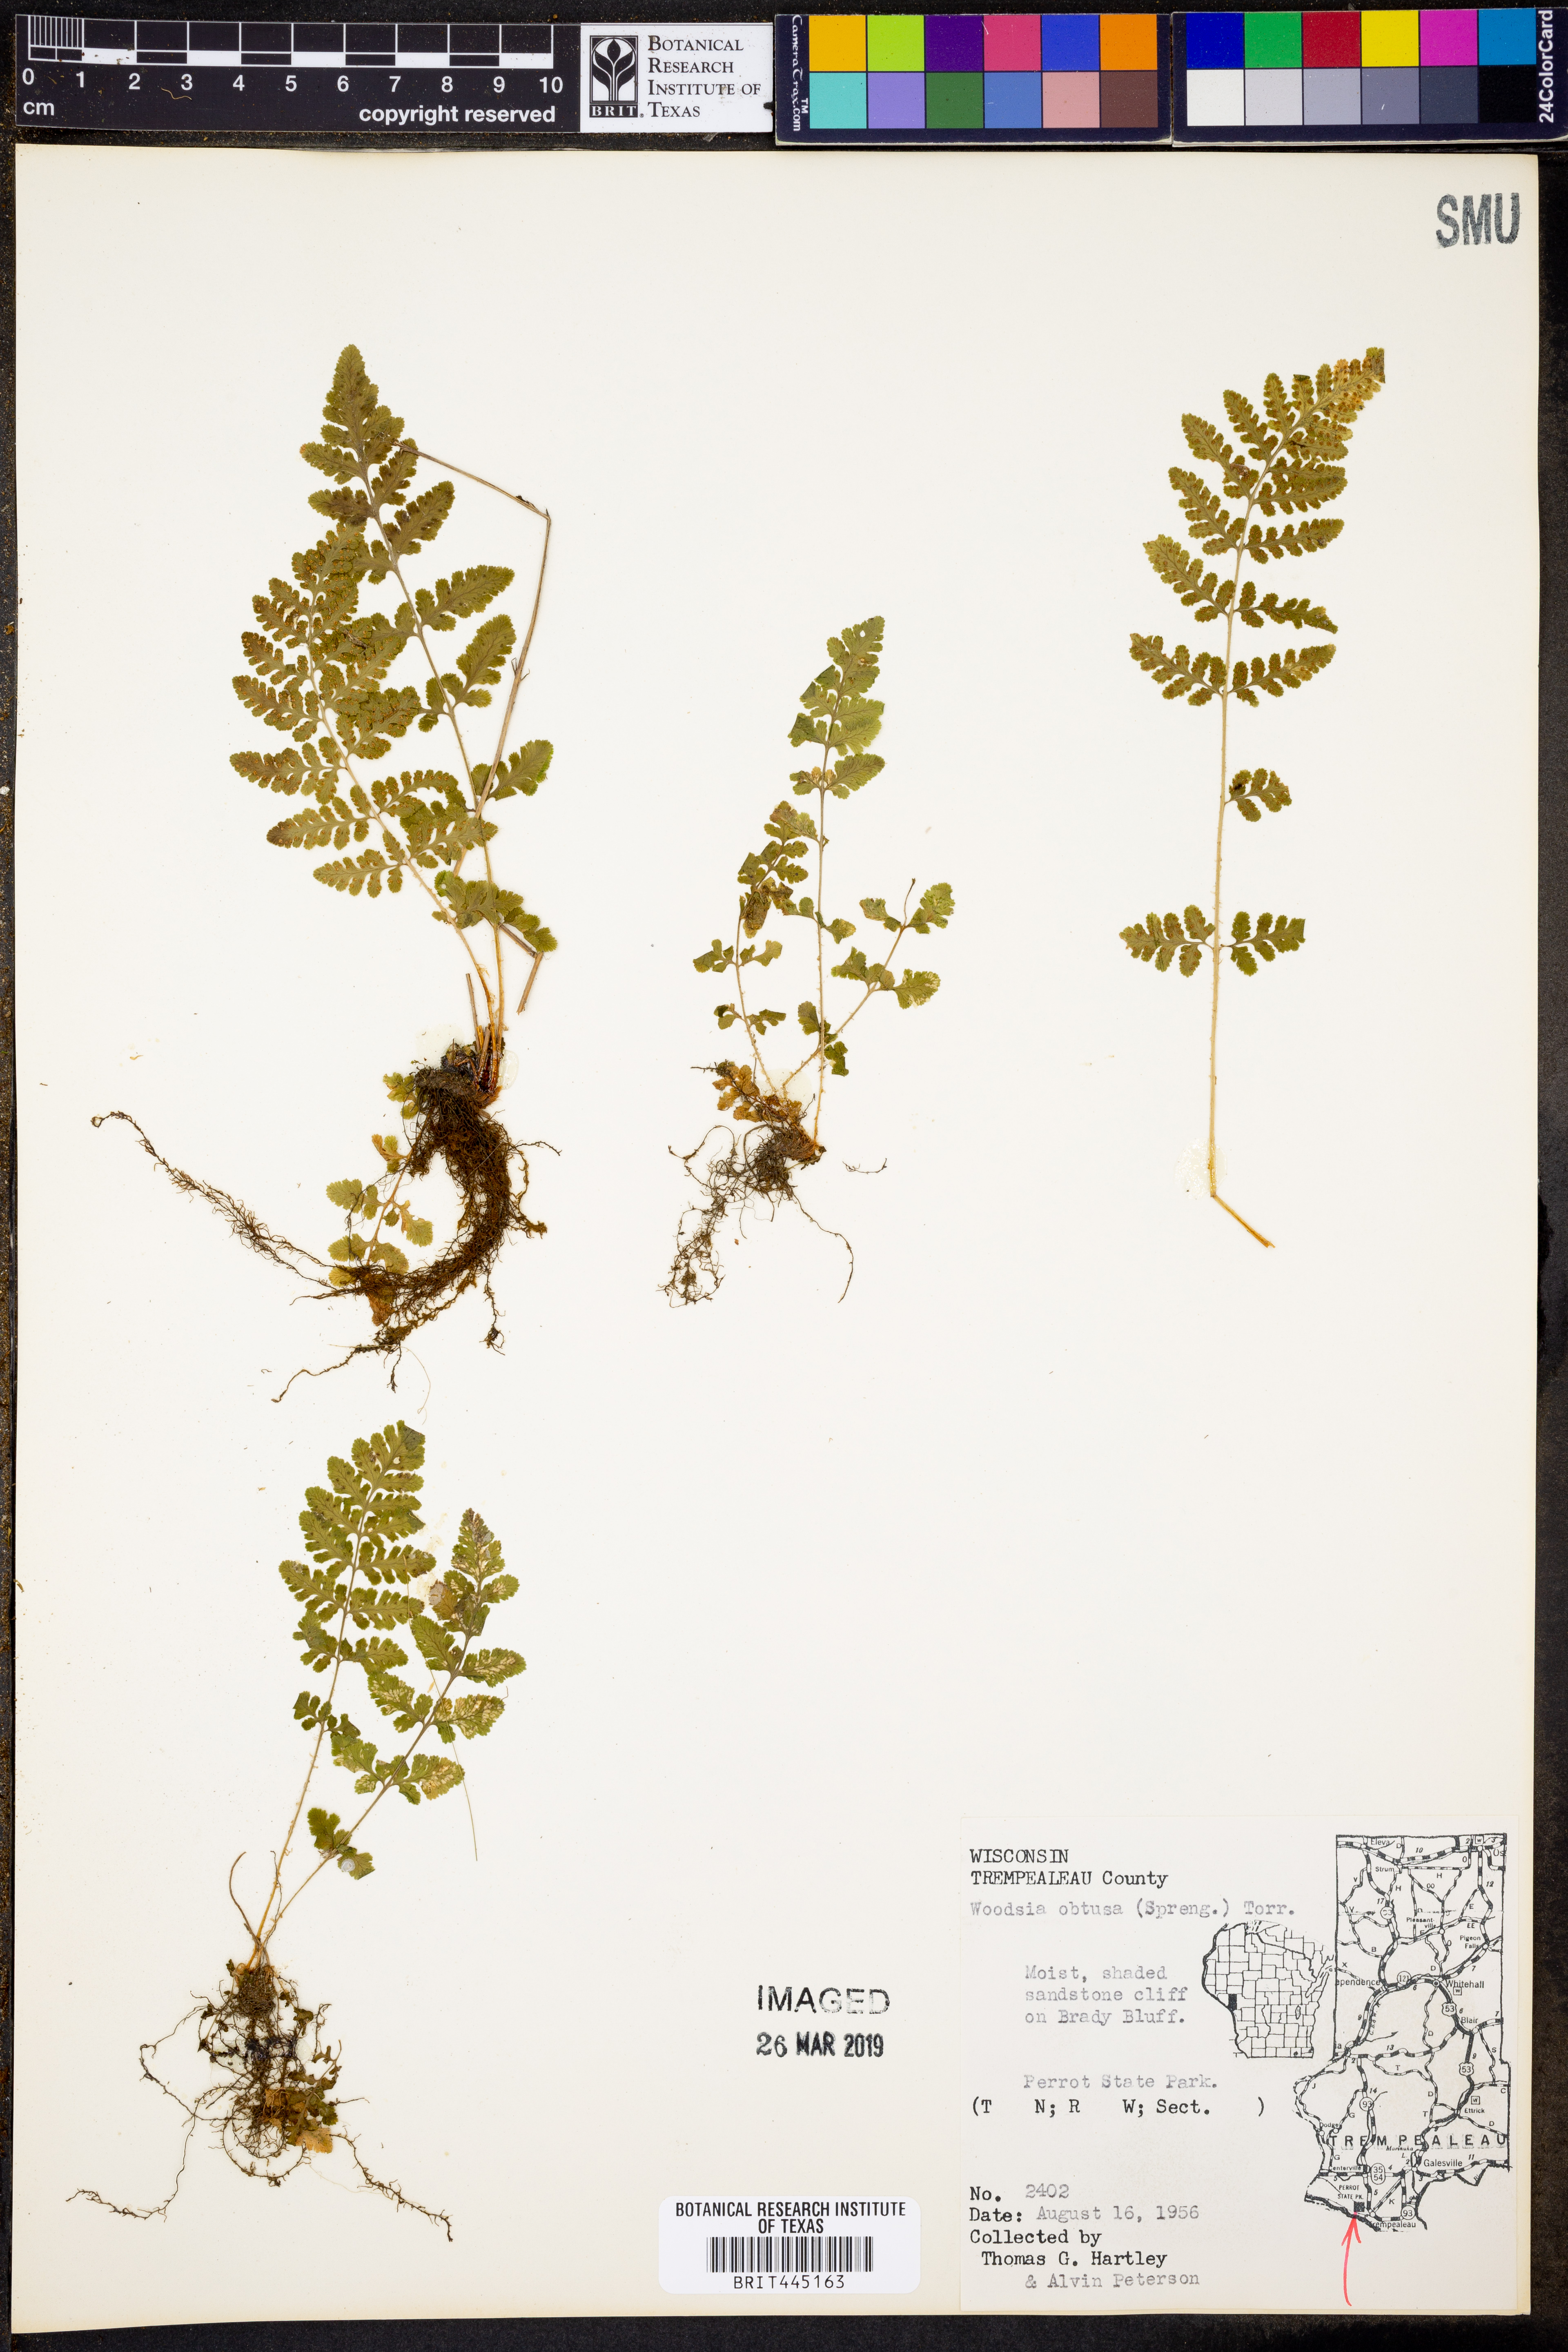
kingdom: Plantae
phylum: Tracheophyta
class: Polypodiopsida
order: Polypodiales
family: Woodsiaceae
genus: Physematium
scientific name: Physematium obtusum
